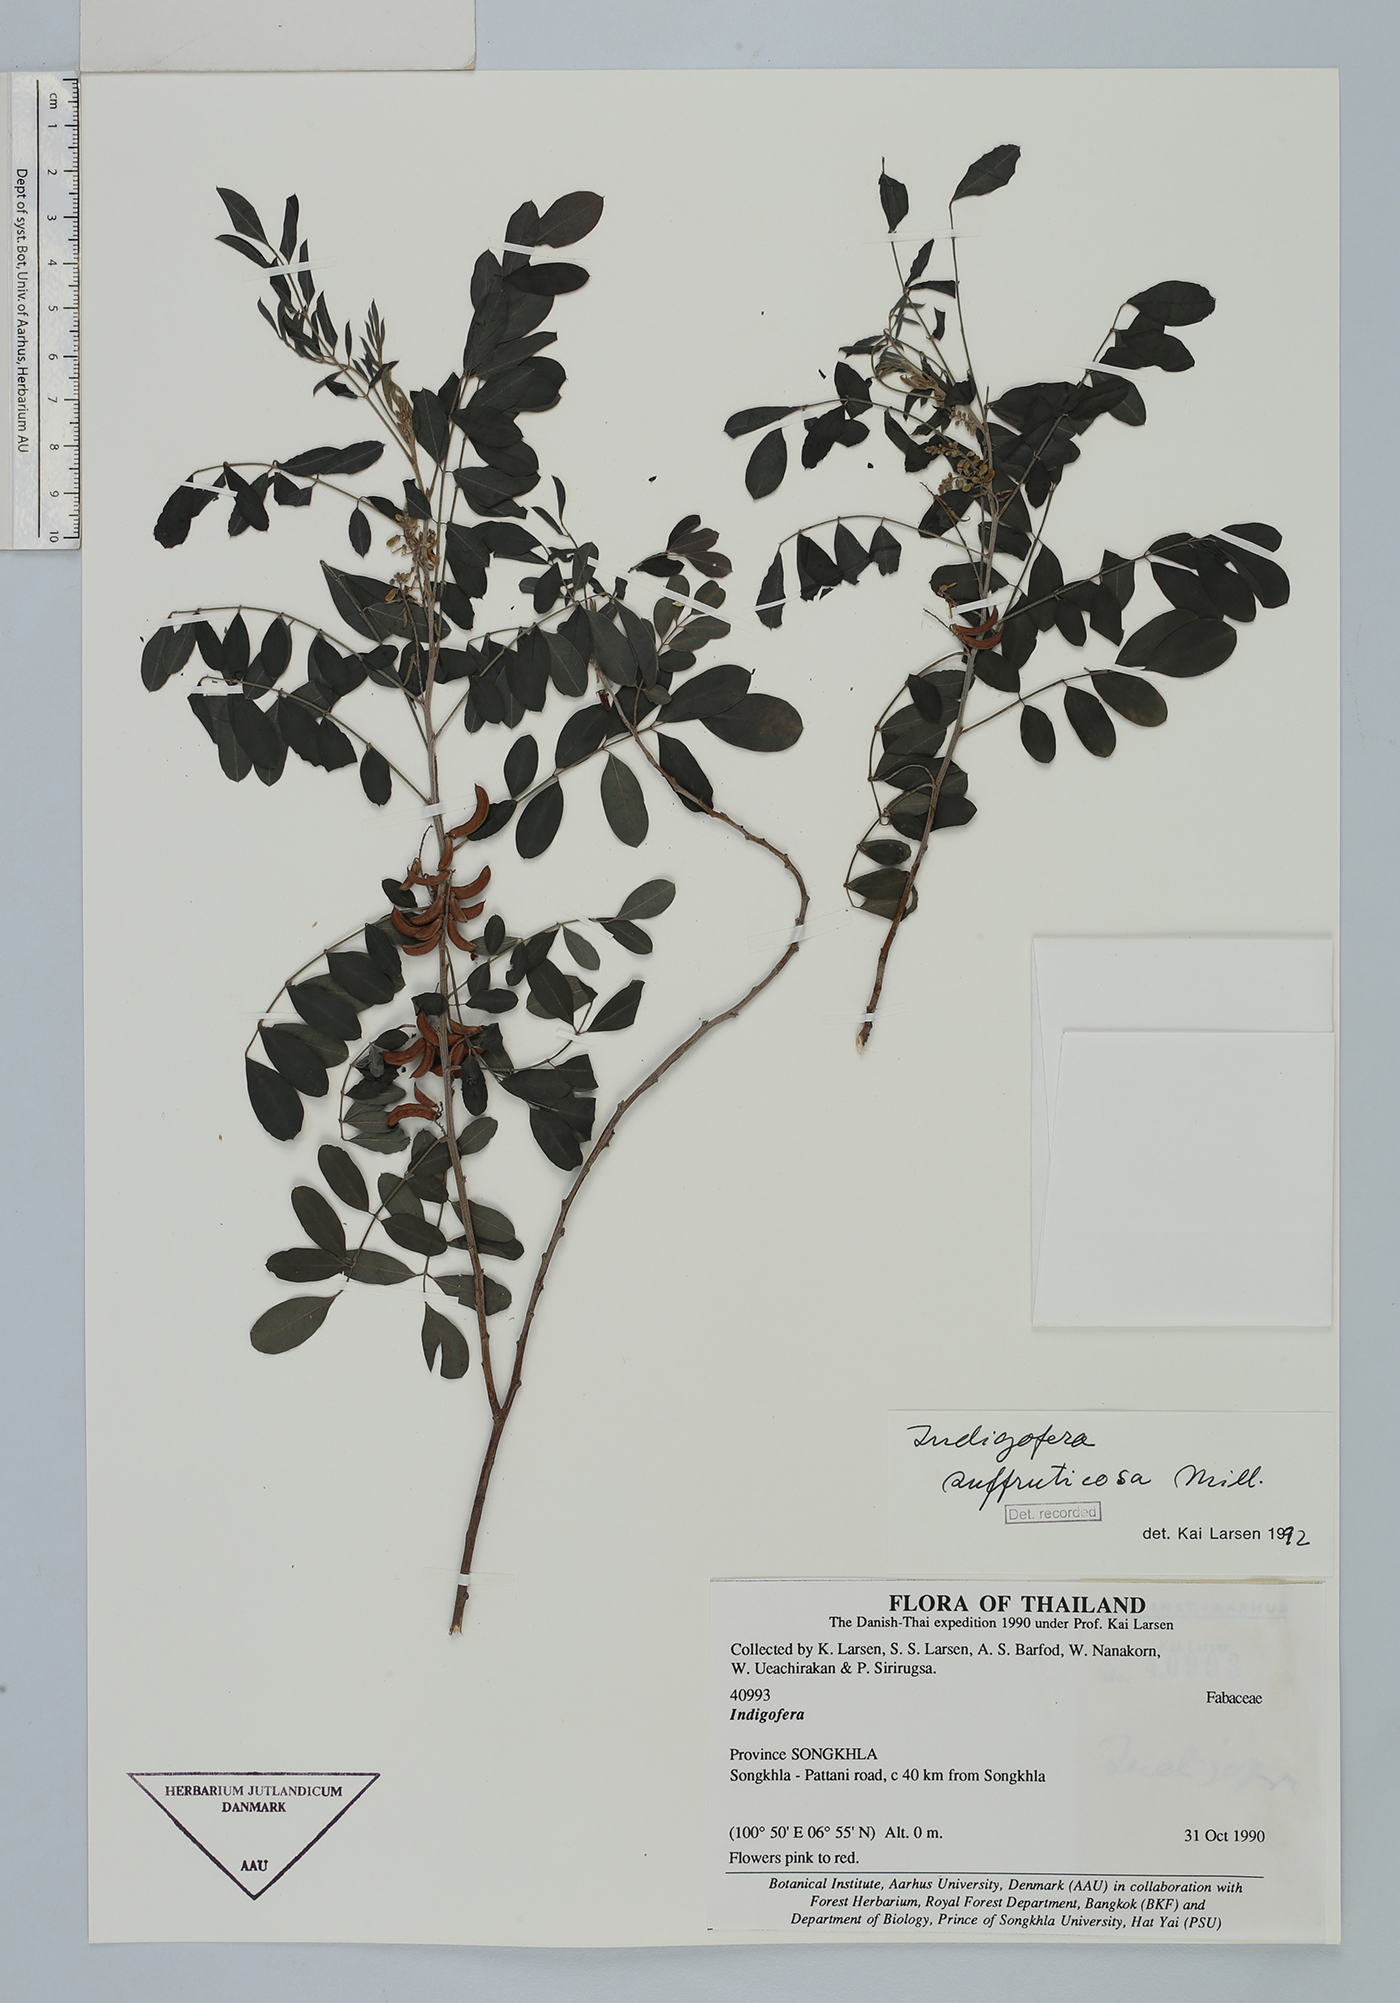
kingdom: Plantae
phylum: Tracheophyta
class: Magnoliopsida
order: Fabales
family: Fabaceae
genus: Indigofera
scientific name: Indigofera suffruticosa
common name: Anil de pasto
